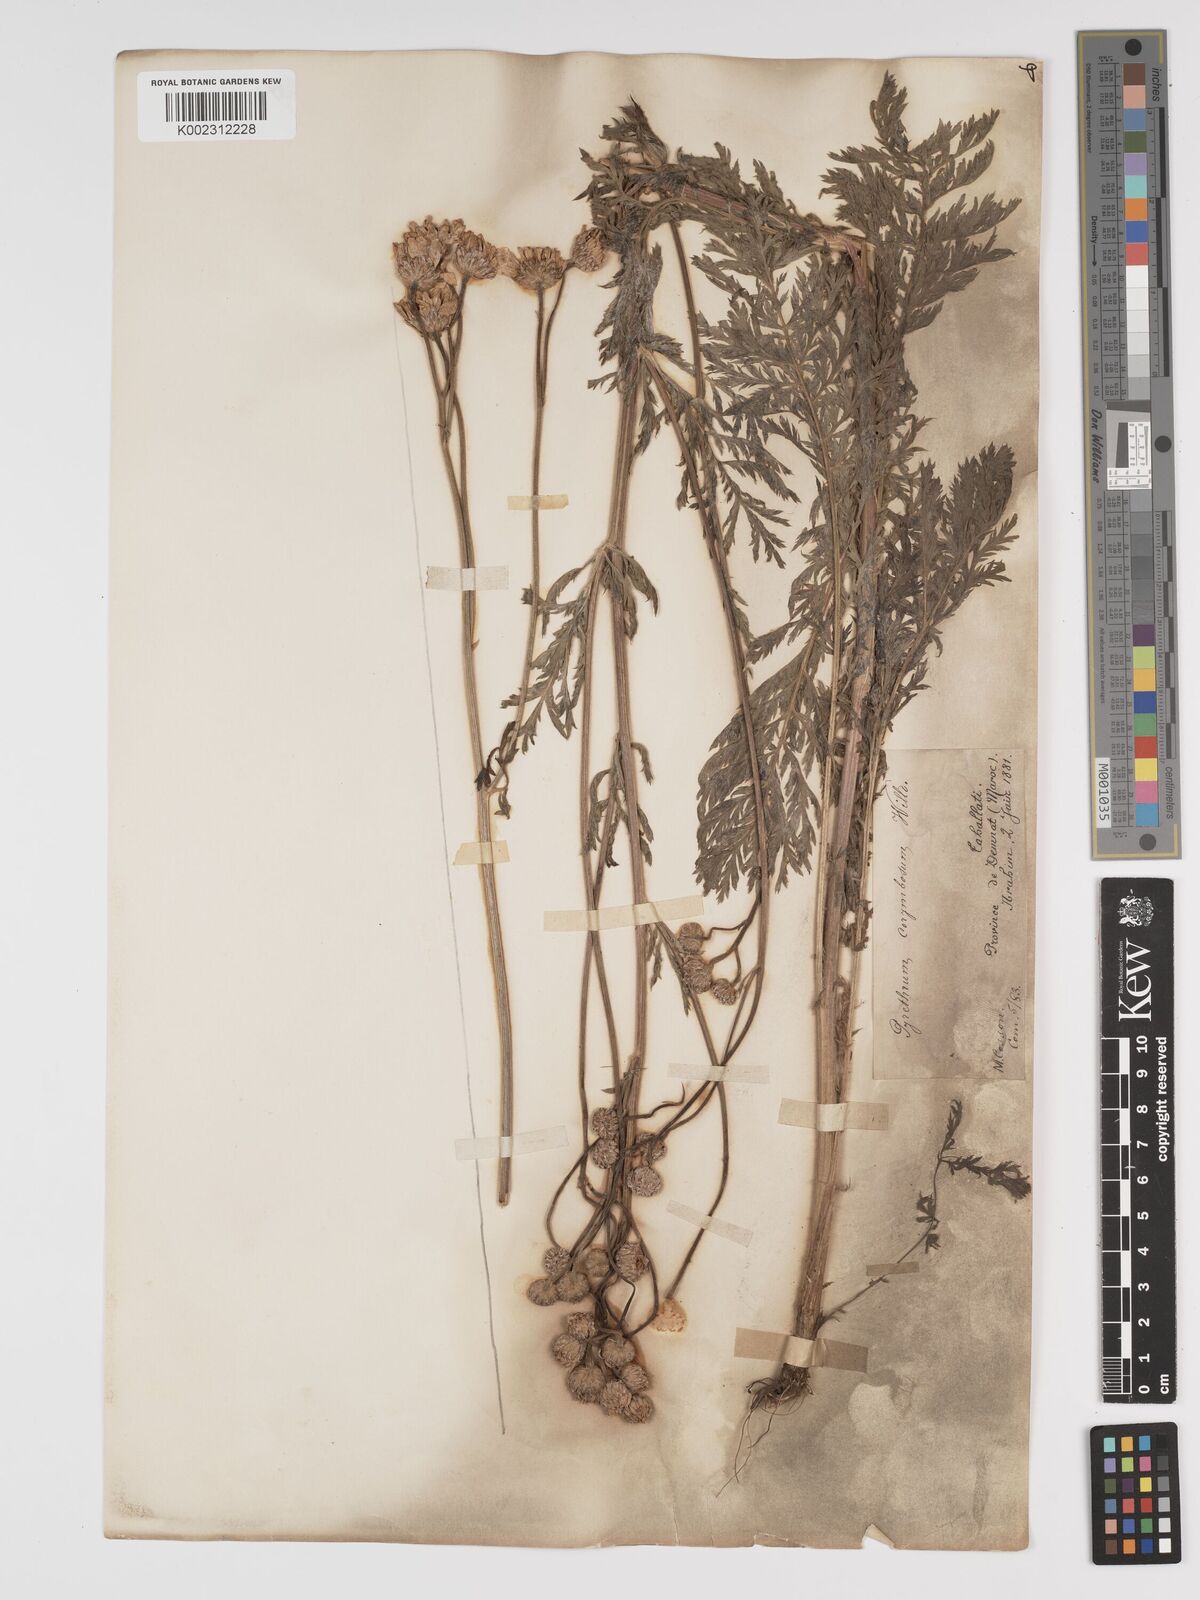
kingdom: Plantae
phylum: Tracheophyta
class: Magnoliopsida
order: Asterales
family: Asteraceae
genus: Tanacetum
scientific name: Tanacetum corymbosum
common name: Scentless feverfew
